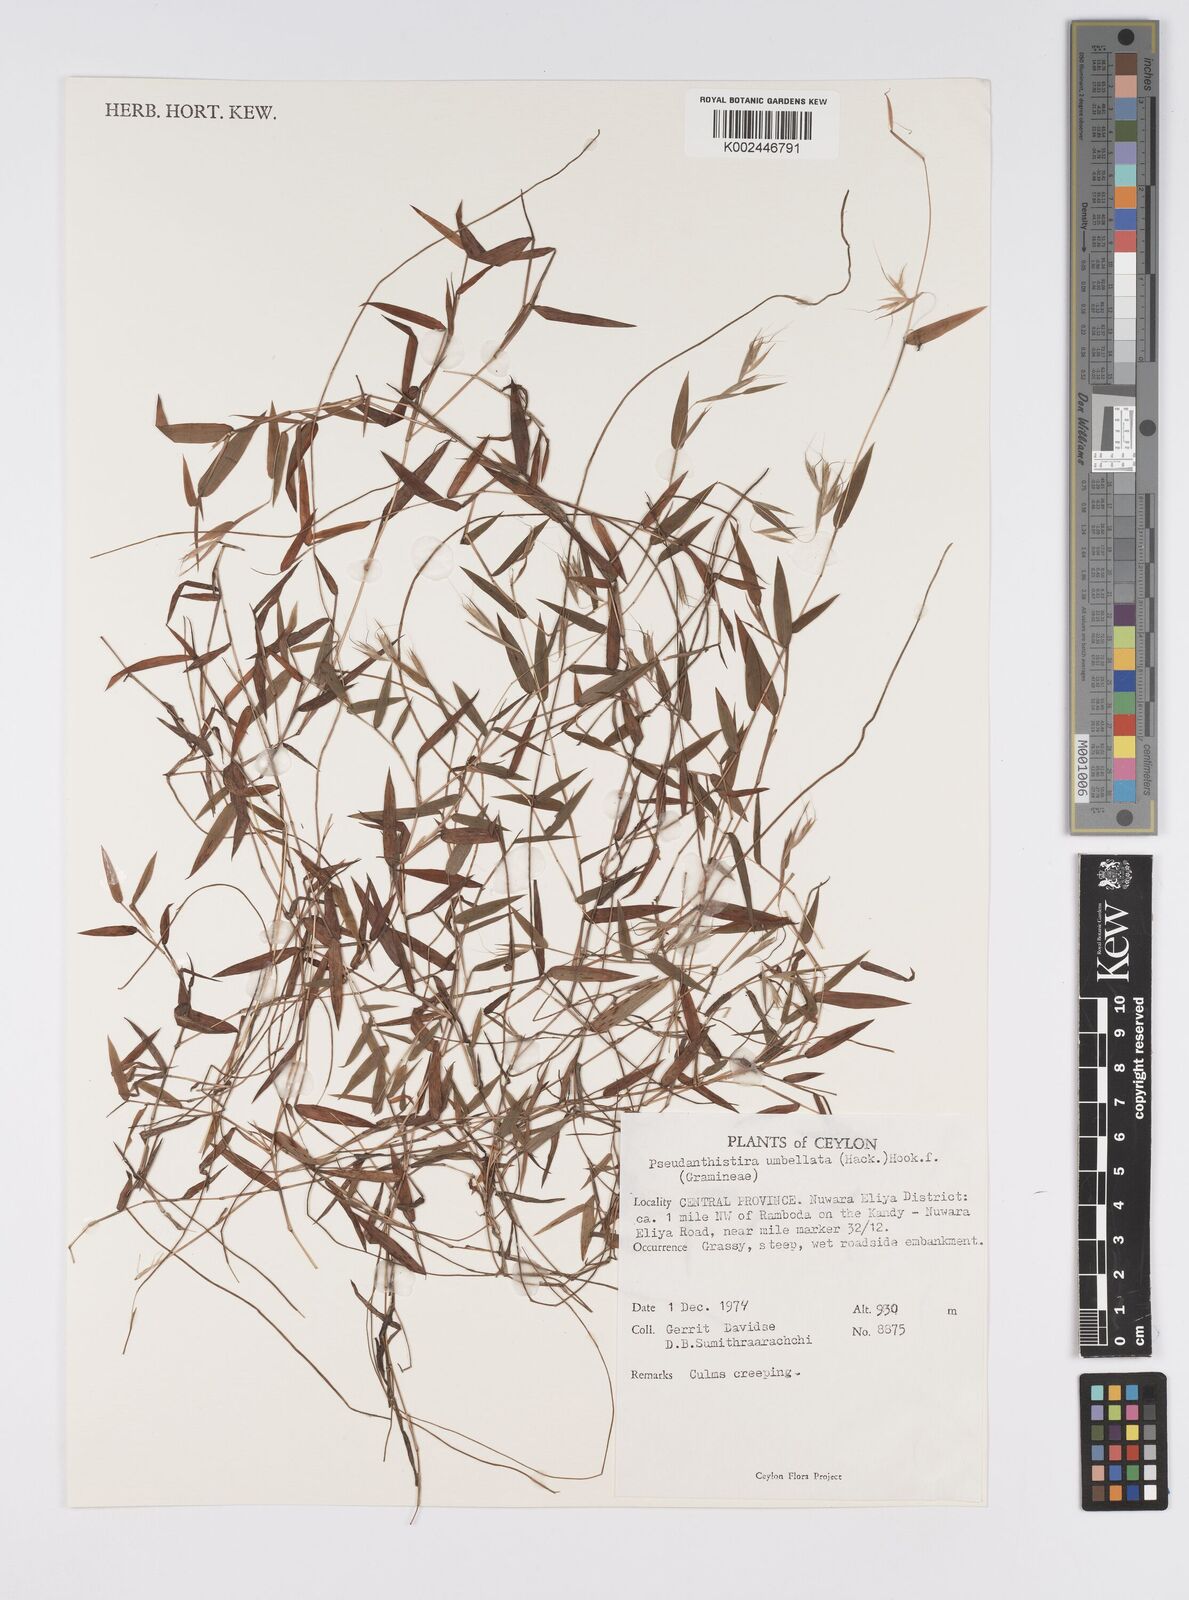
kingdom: Plantae
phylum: Tracheophyta
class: Liliopsida
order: Poales
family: Poaceae
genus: Pseudanthistiria
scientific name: Pseudanthistiria umbellata
